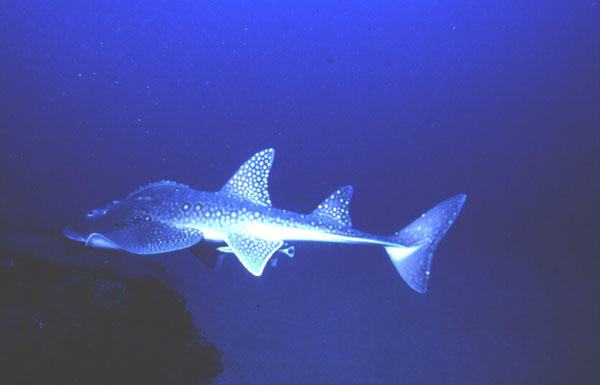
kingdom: Animalia
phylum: Chordata
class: Elasmobranchii
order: Rhinopristiformes
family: Rhinidae
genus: Rhina
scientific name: Rhina ancylostoma
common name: Bowmouth guitarfish
